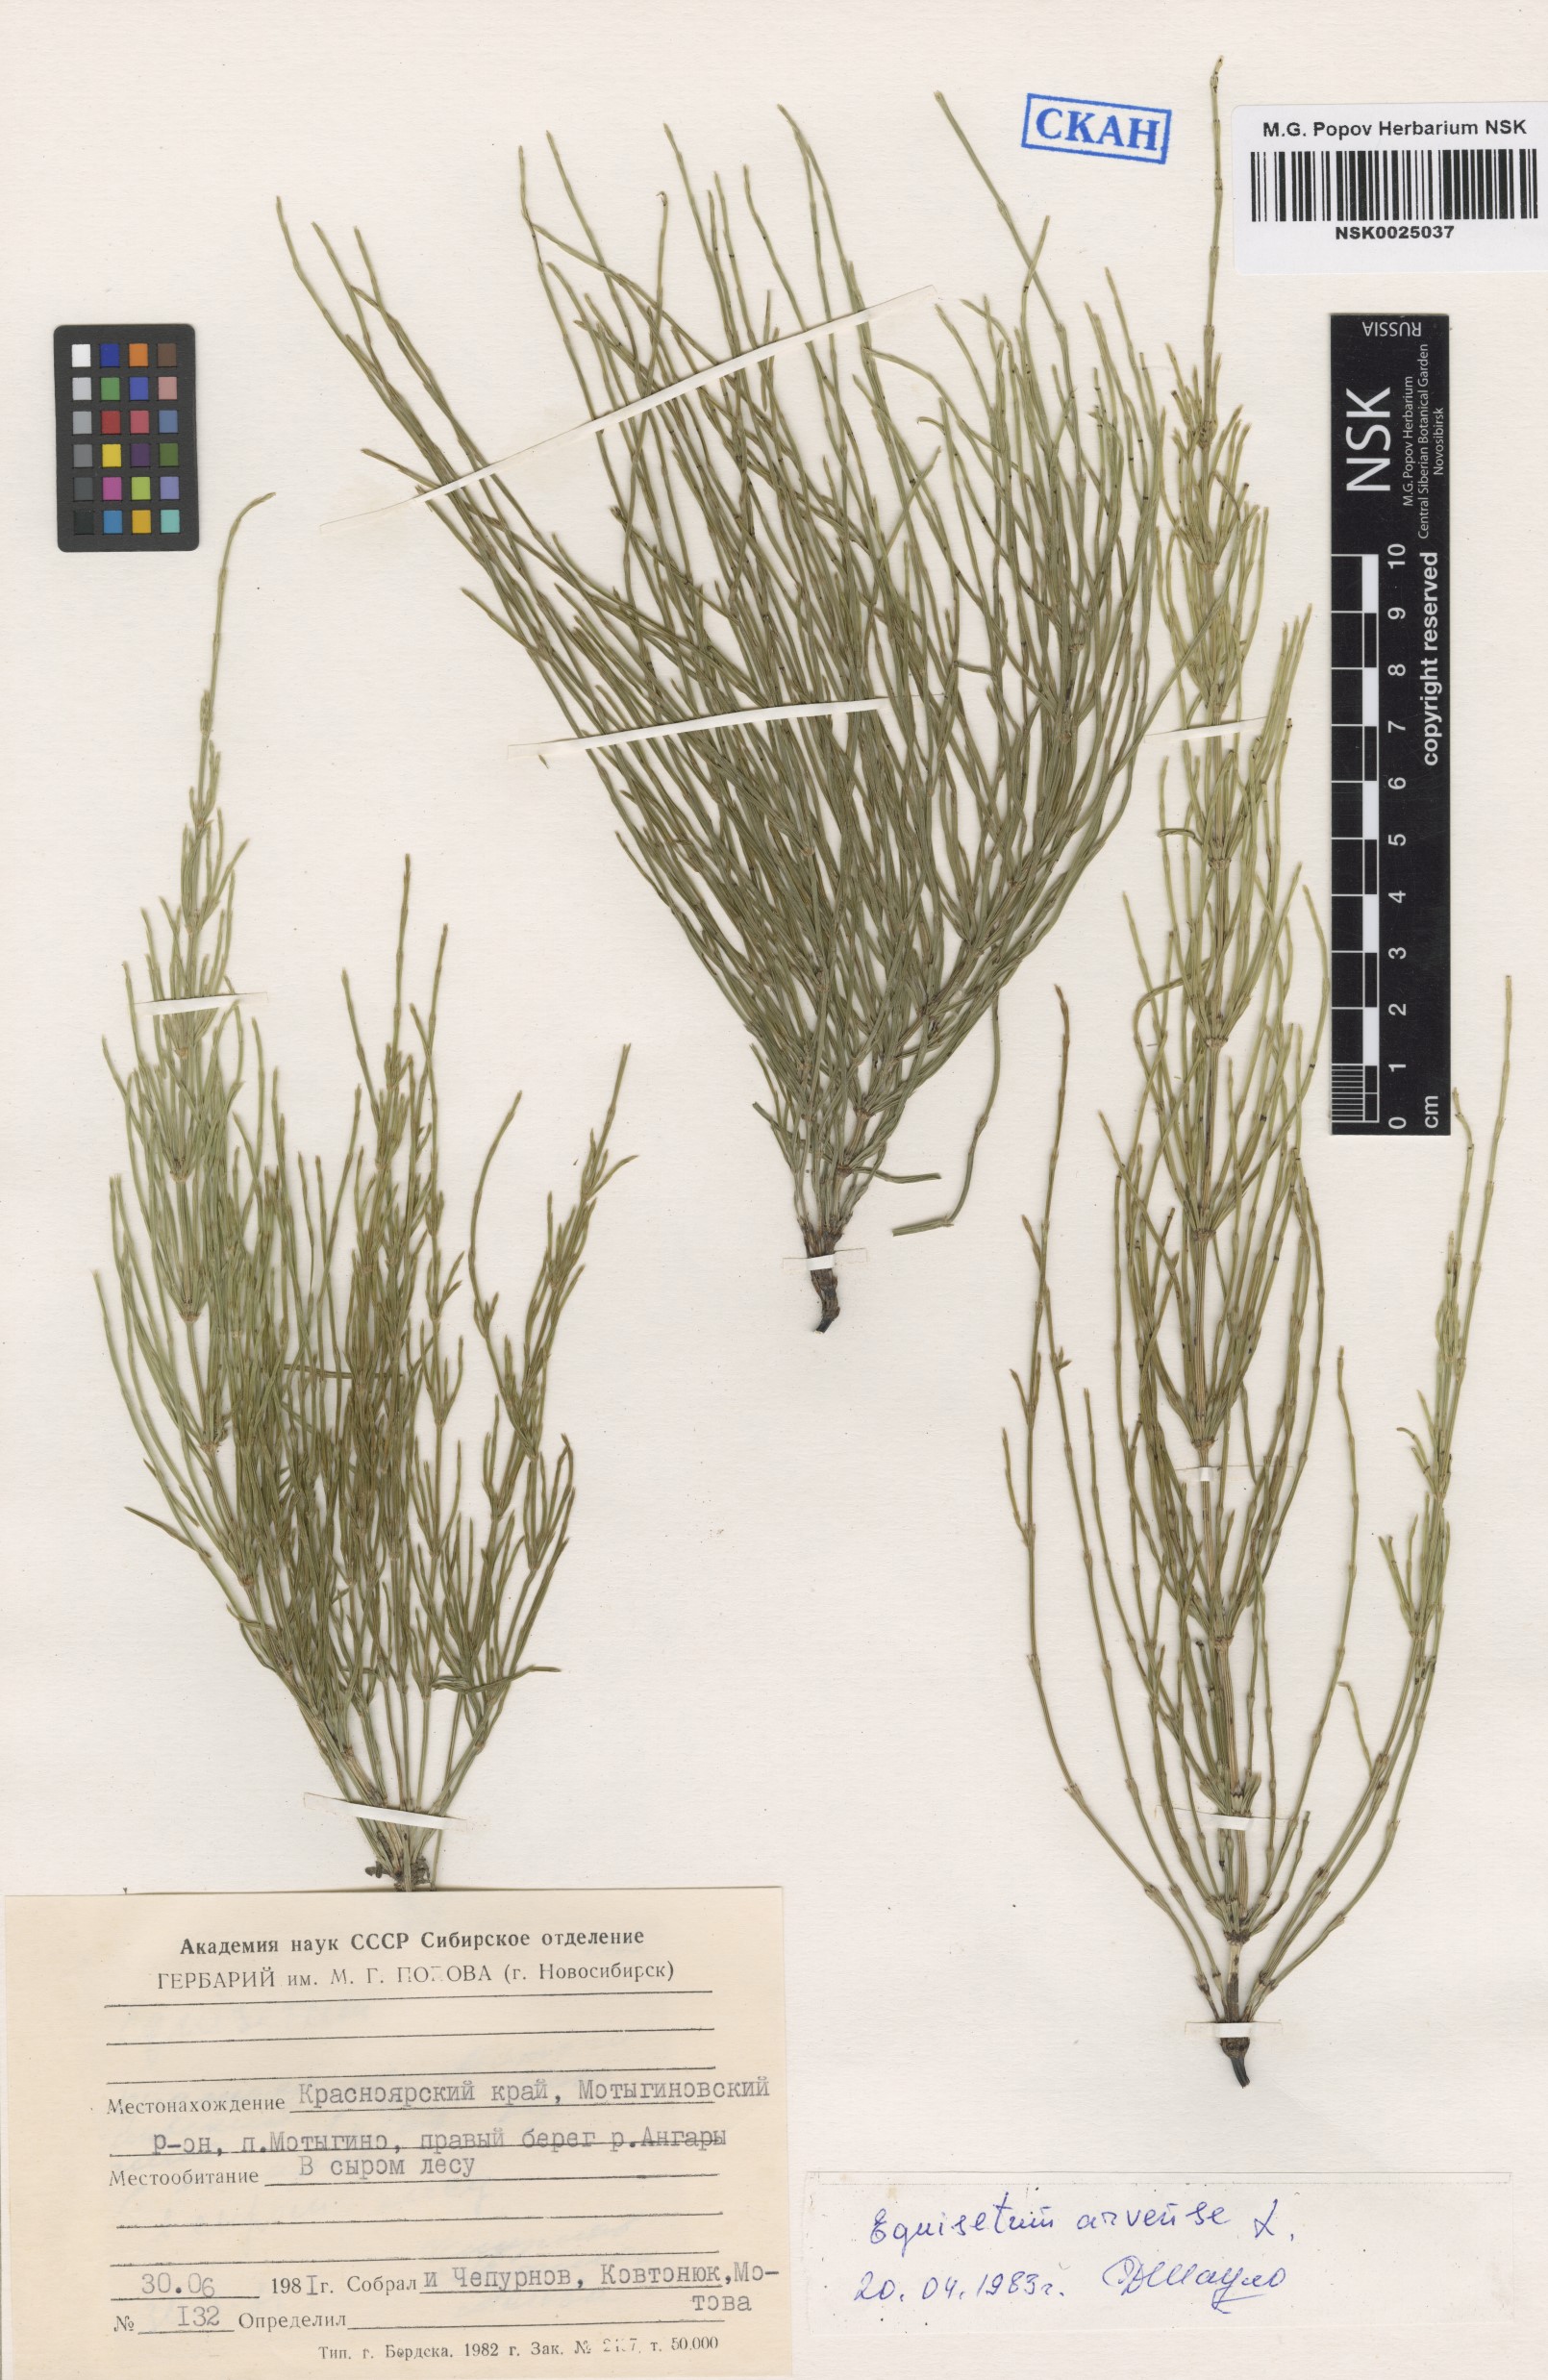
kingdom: Plantae
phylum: Tracheophyta
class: Polypodiopsida
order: Equisetales
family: Equisetaceae
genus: Equisetum
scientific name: Equisetum arvense
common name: Field horsetail
